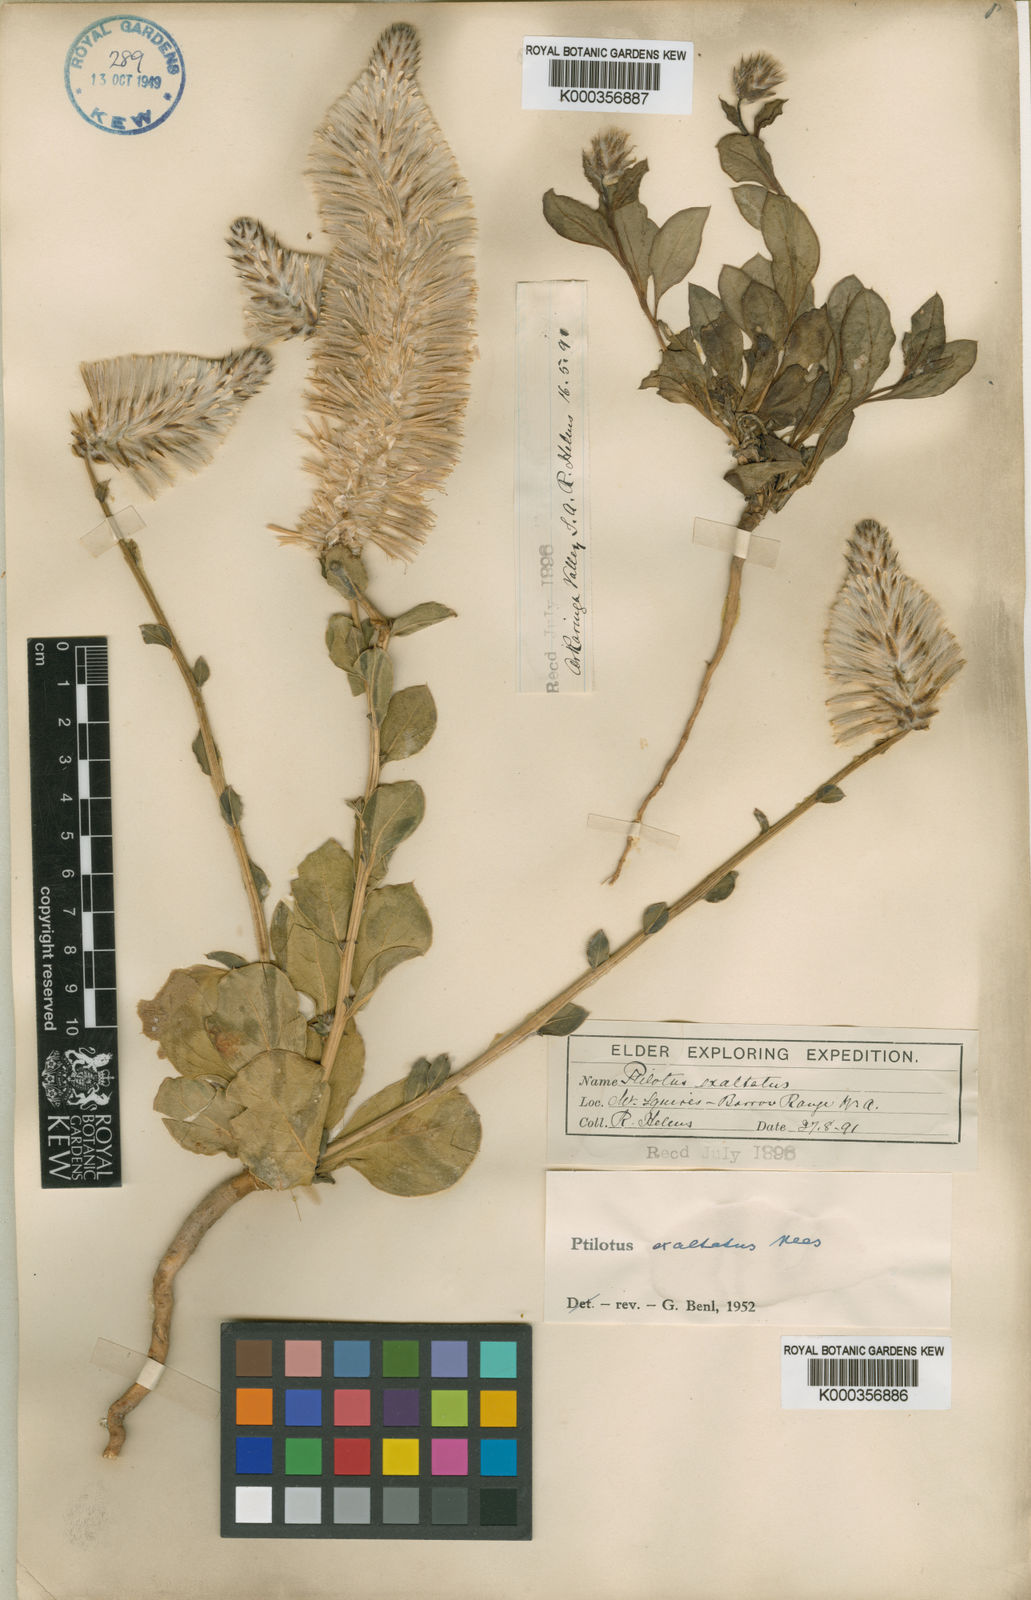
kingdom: Plantae
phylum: Tracheophyta
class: Magnoliopsida
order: Caryophyllales
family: Amaranthaceae
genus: Ptilotus
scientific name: Ptilotus exaltatus
